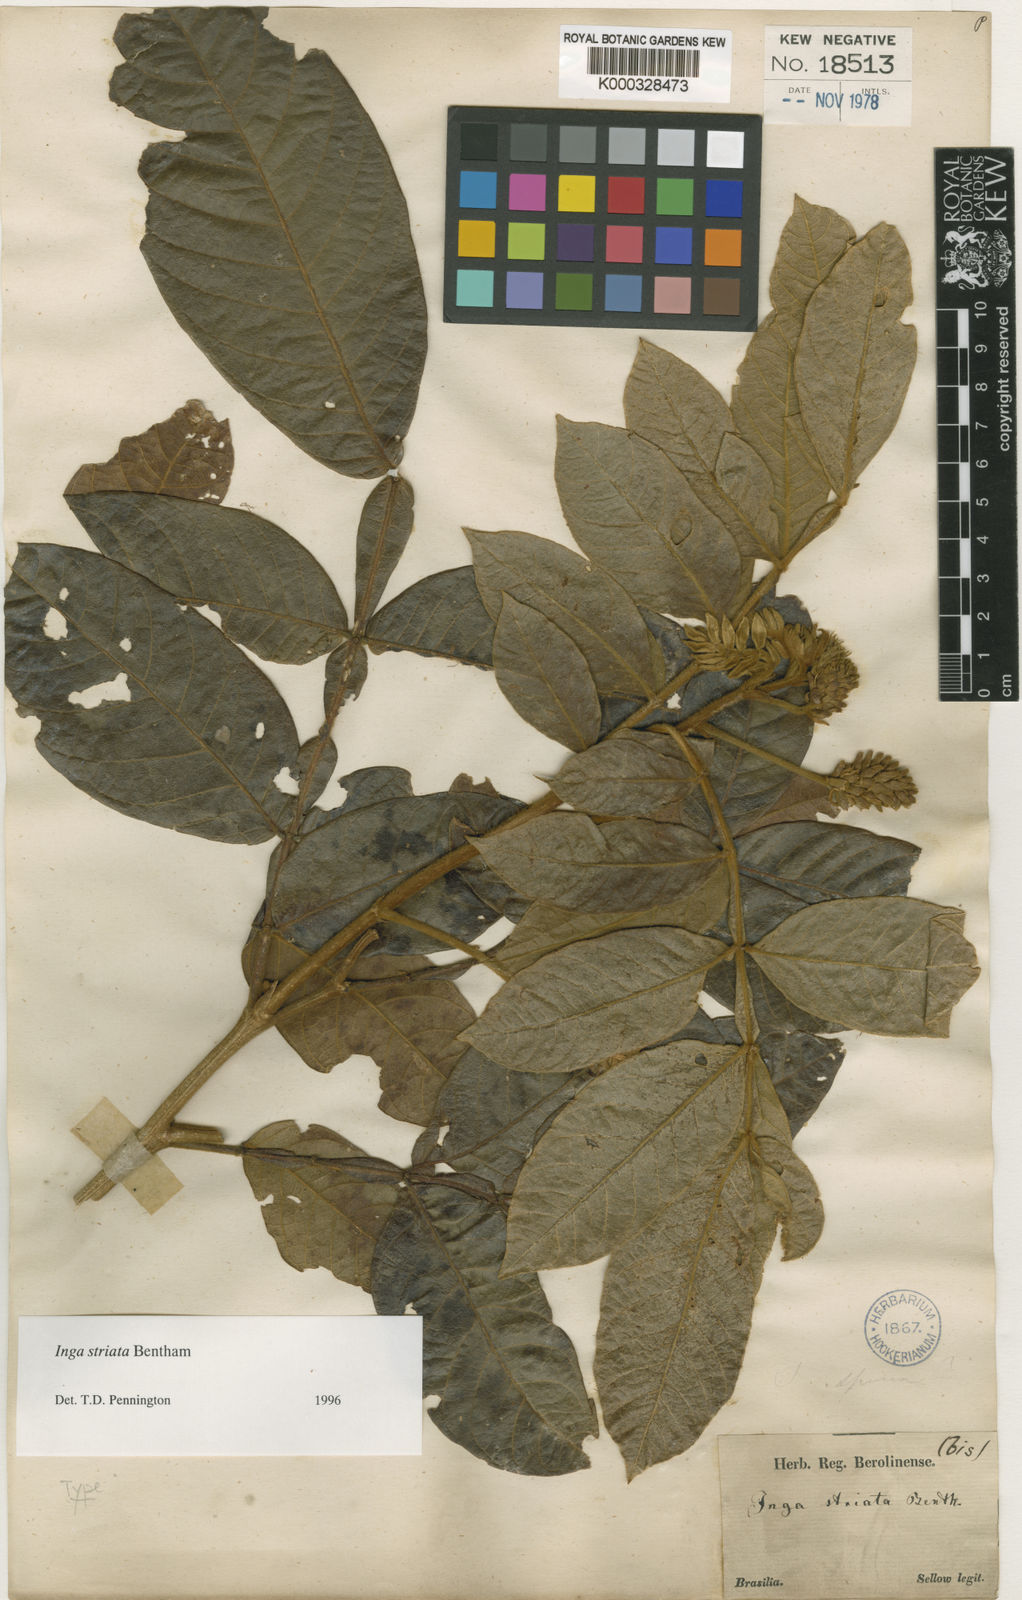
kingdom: Plantae
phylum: Tracheophyta
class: Magnoliopsida
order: Fabales
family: Fabaceae
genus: Inga
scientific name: Inga striata
